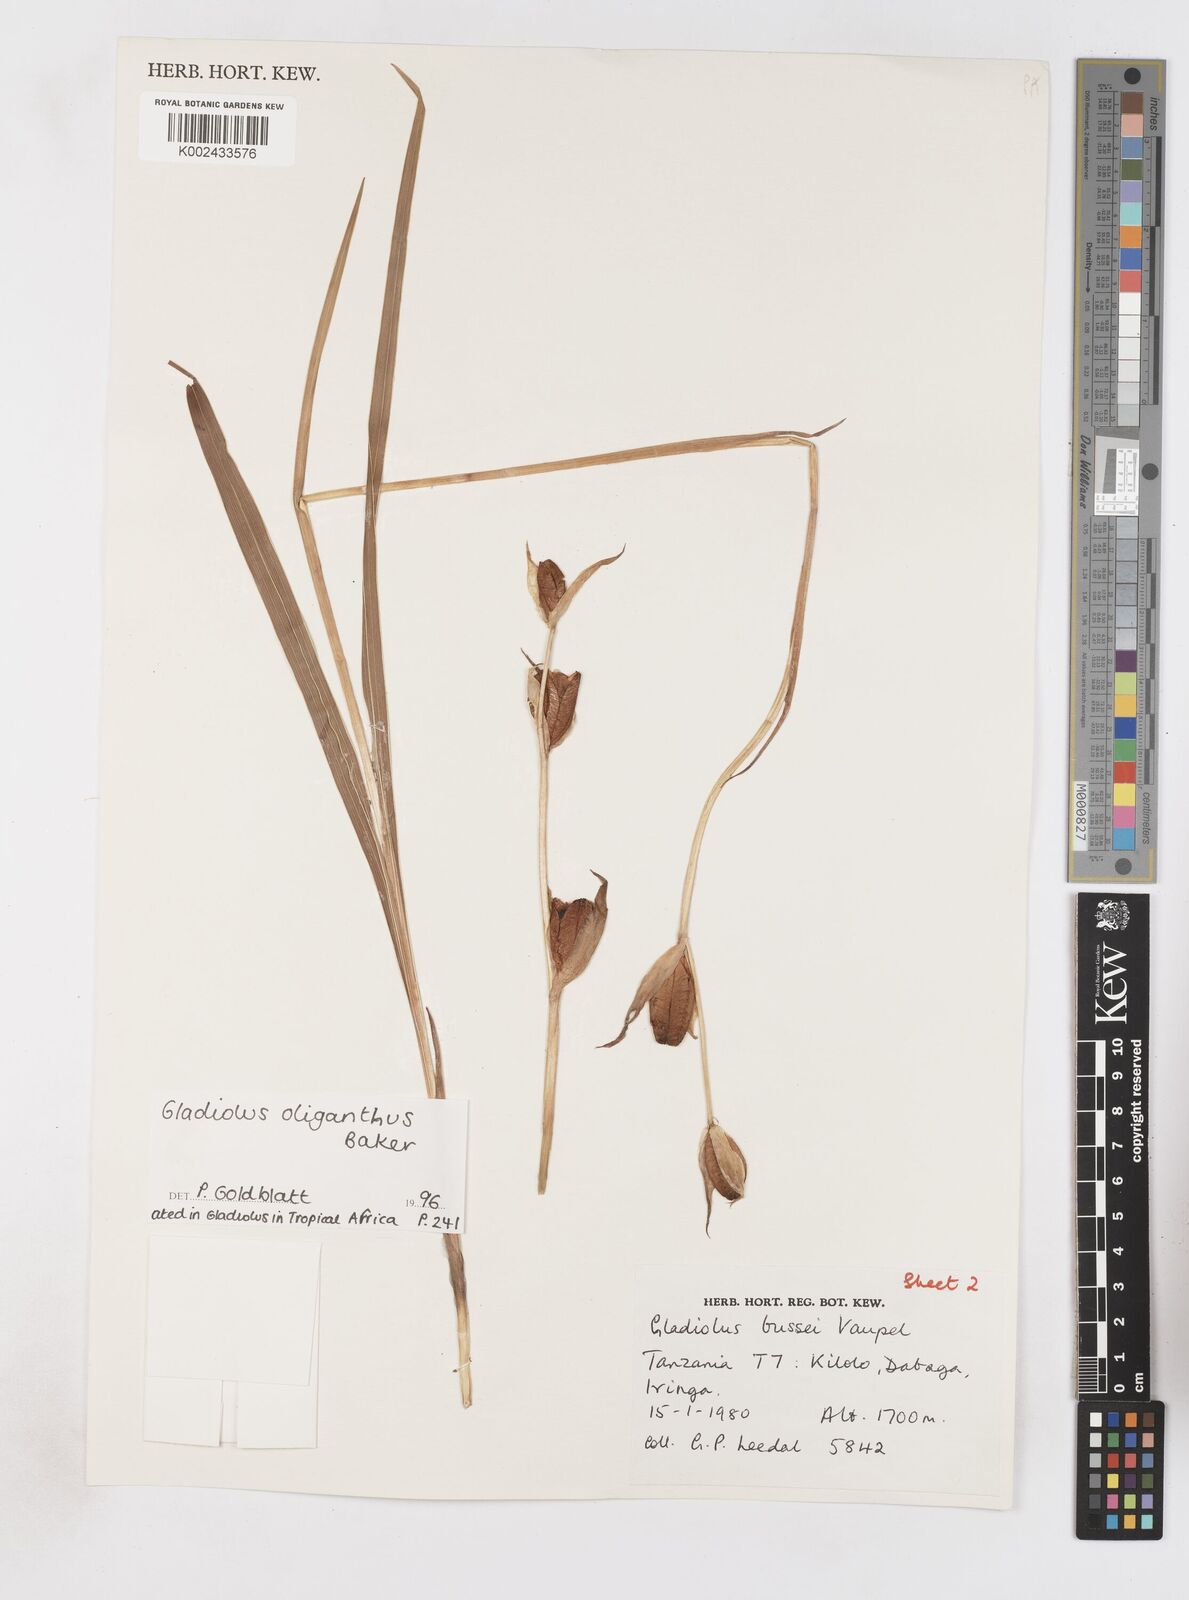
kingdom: Plantae
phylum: Tracheophyta
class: Liliopsida
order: Asparagales
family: Iridaceae
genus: Gladiolus
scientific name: Gladiolus oliganthus
